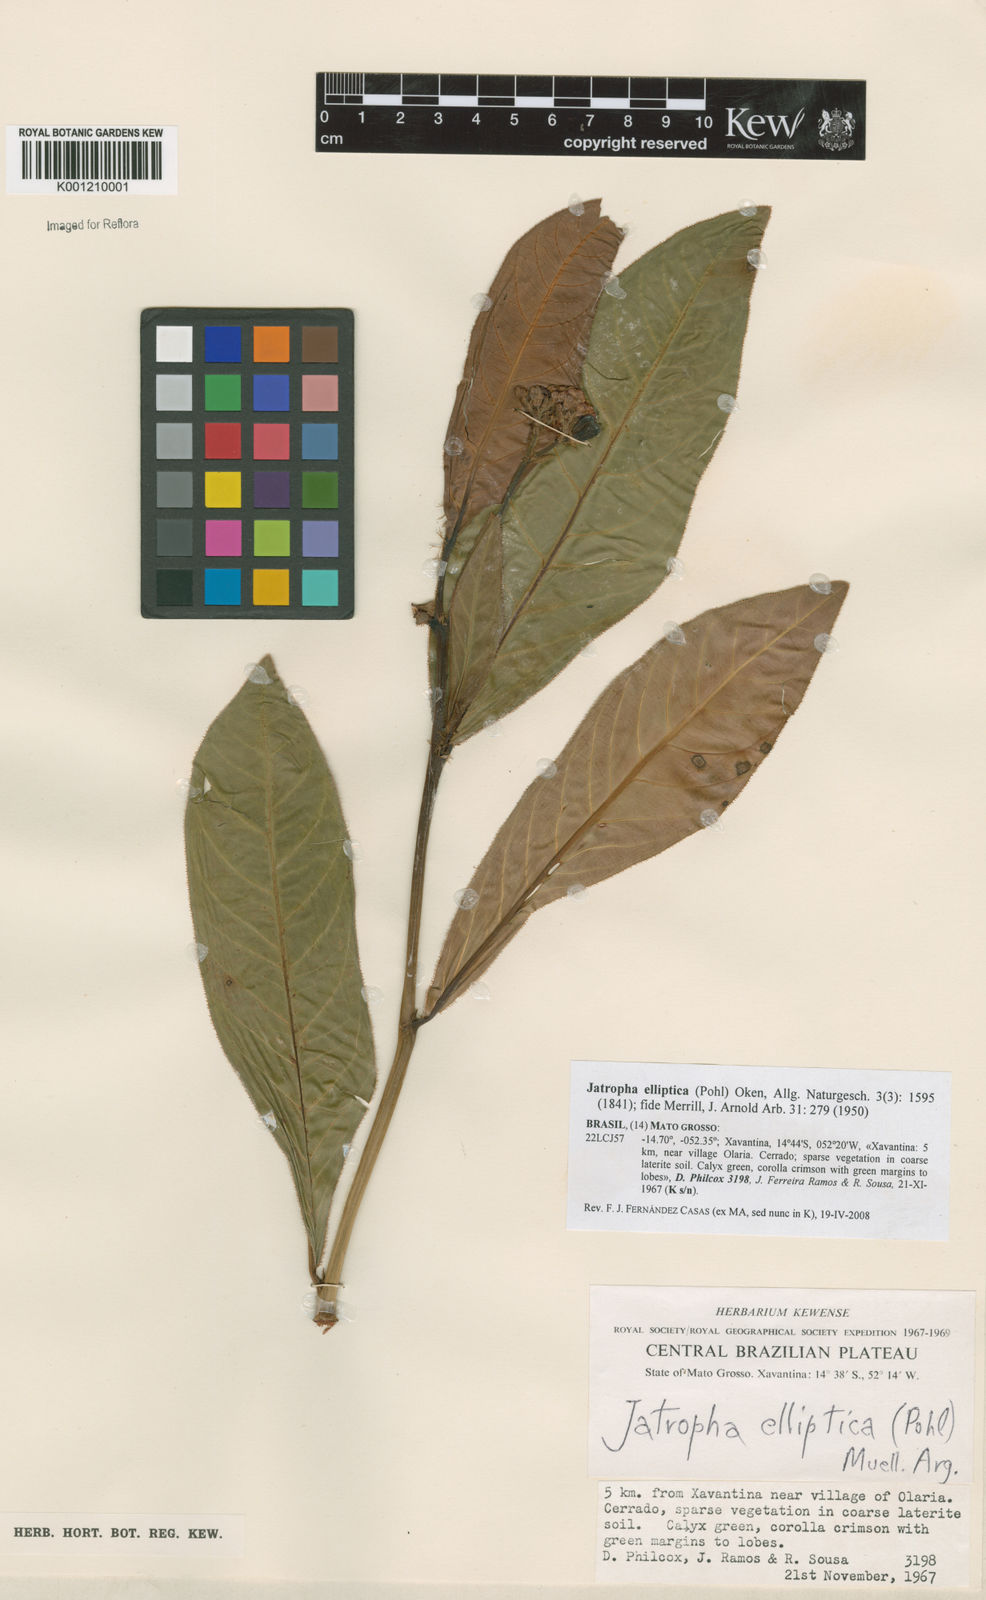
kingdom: Plantae
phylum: Tracheophyta
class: Magnoliopsida
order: Malpighiales
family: Euphorbiaceae
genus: Jatropha
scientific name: Jatropha elliptica
